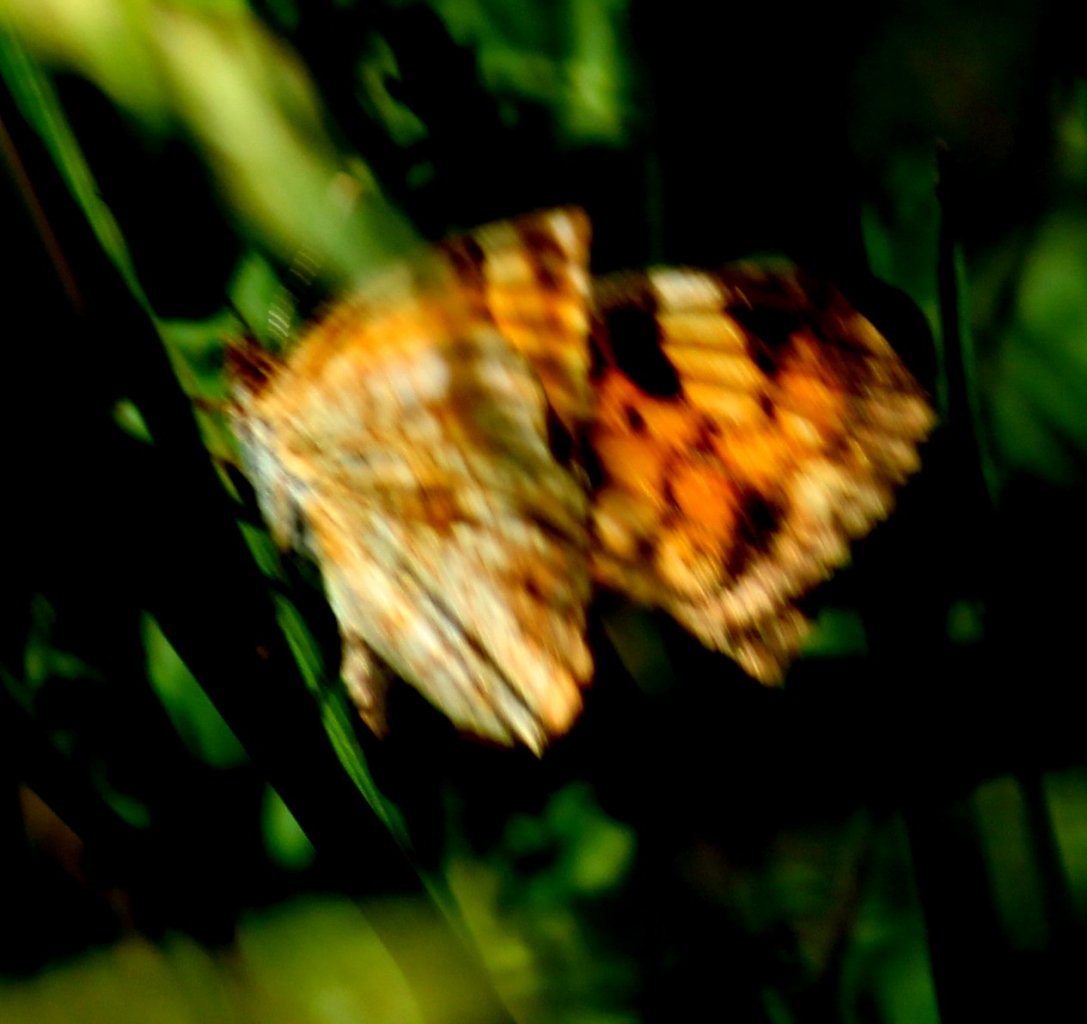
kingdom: Animalia
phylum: Arthropoda
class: Insecta
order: Lepidoptera
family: Nymphalidae
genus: Phyciodes
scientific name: Phyciodes tharos
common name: Pearl Crescent
